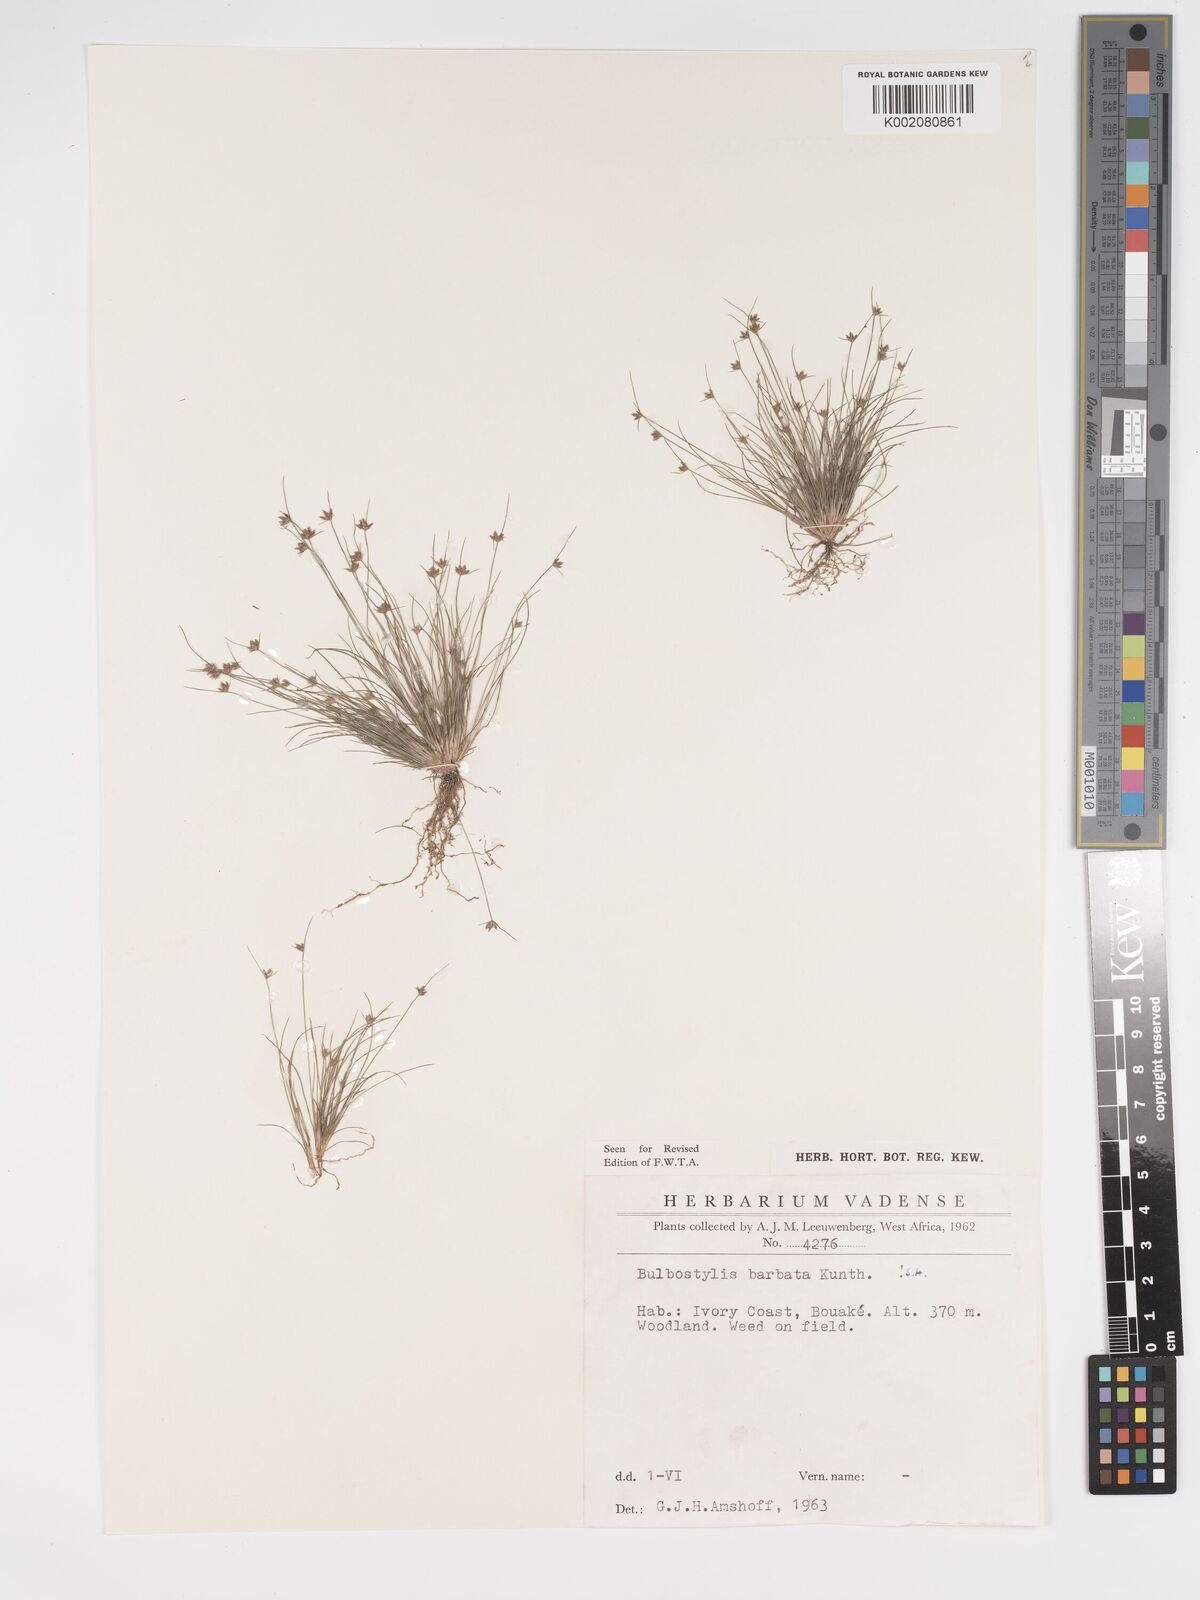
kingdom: Plantae
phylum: Tracheophyta
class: Liliopsida
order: Poales
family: Cyperaceae
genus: Bulbostylis
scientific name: Bulbostylis barbata
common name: Watergrass
